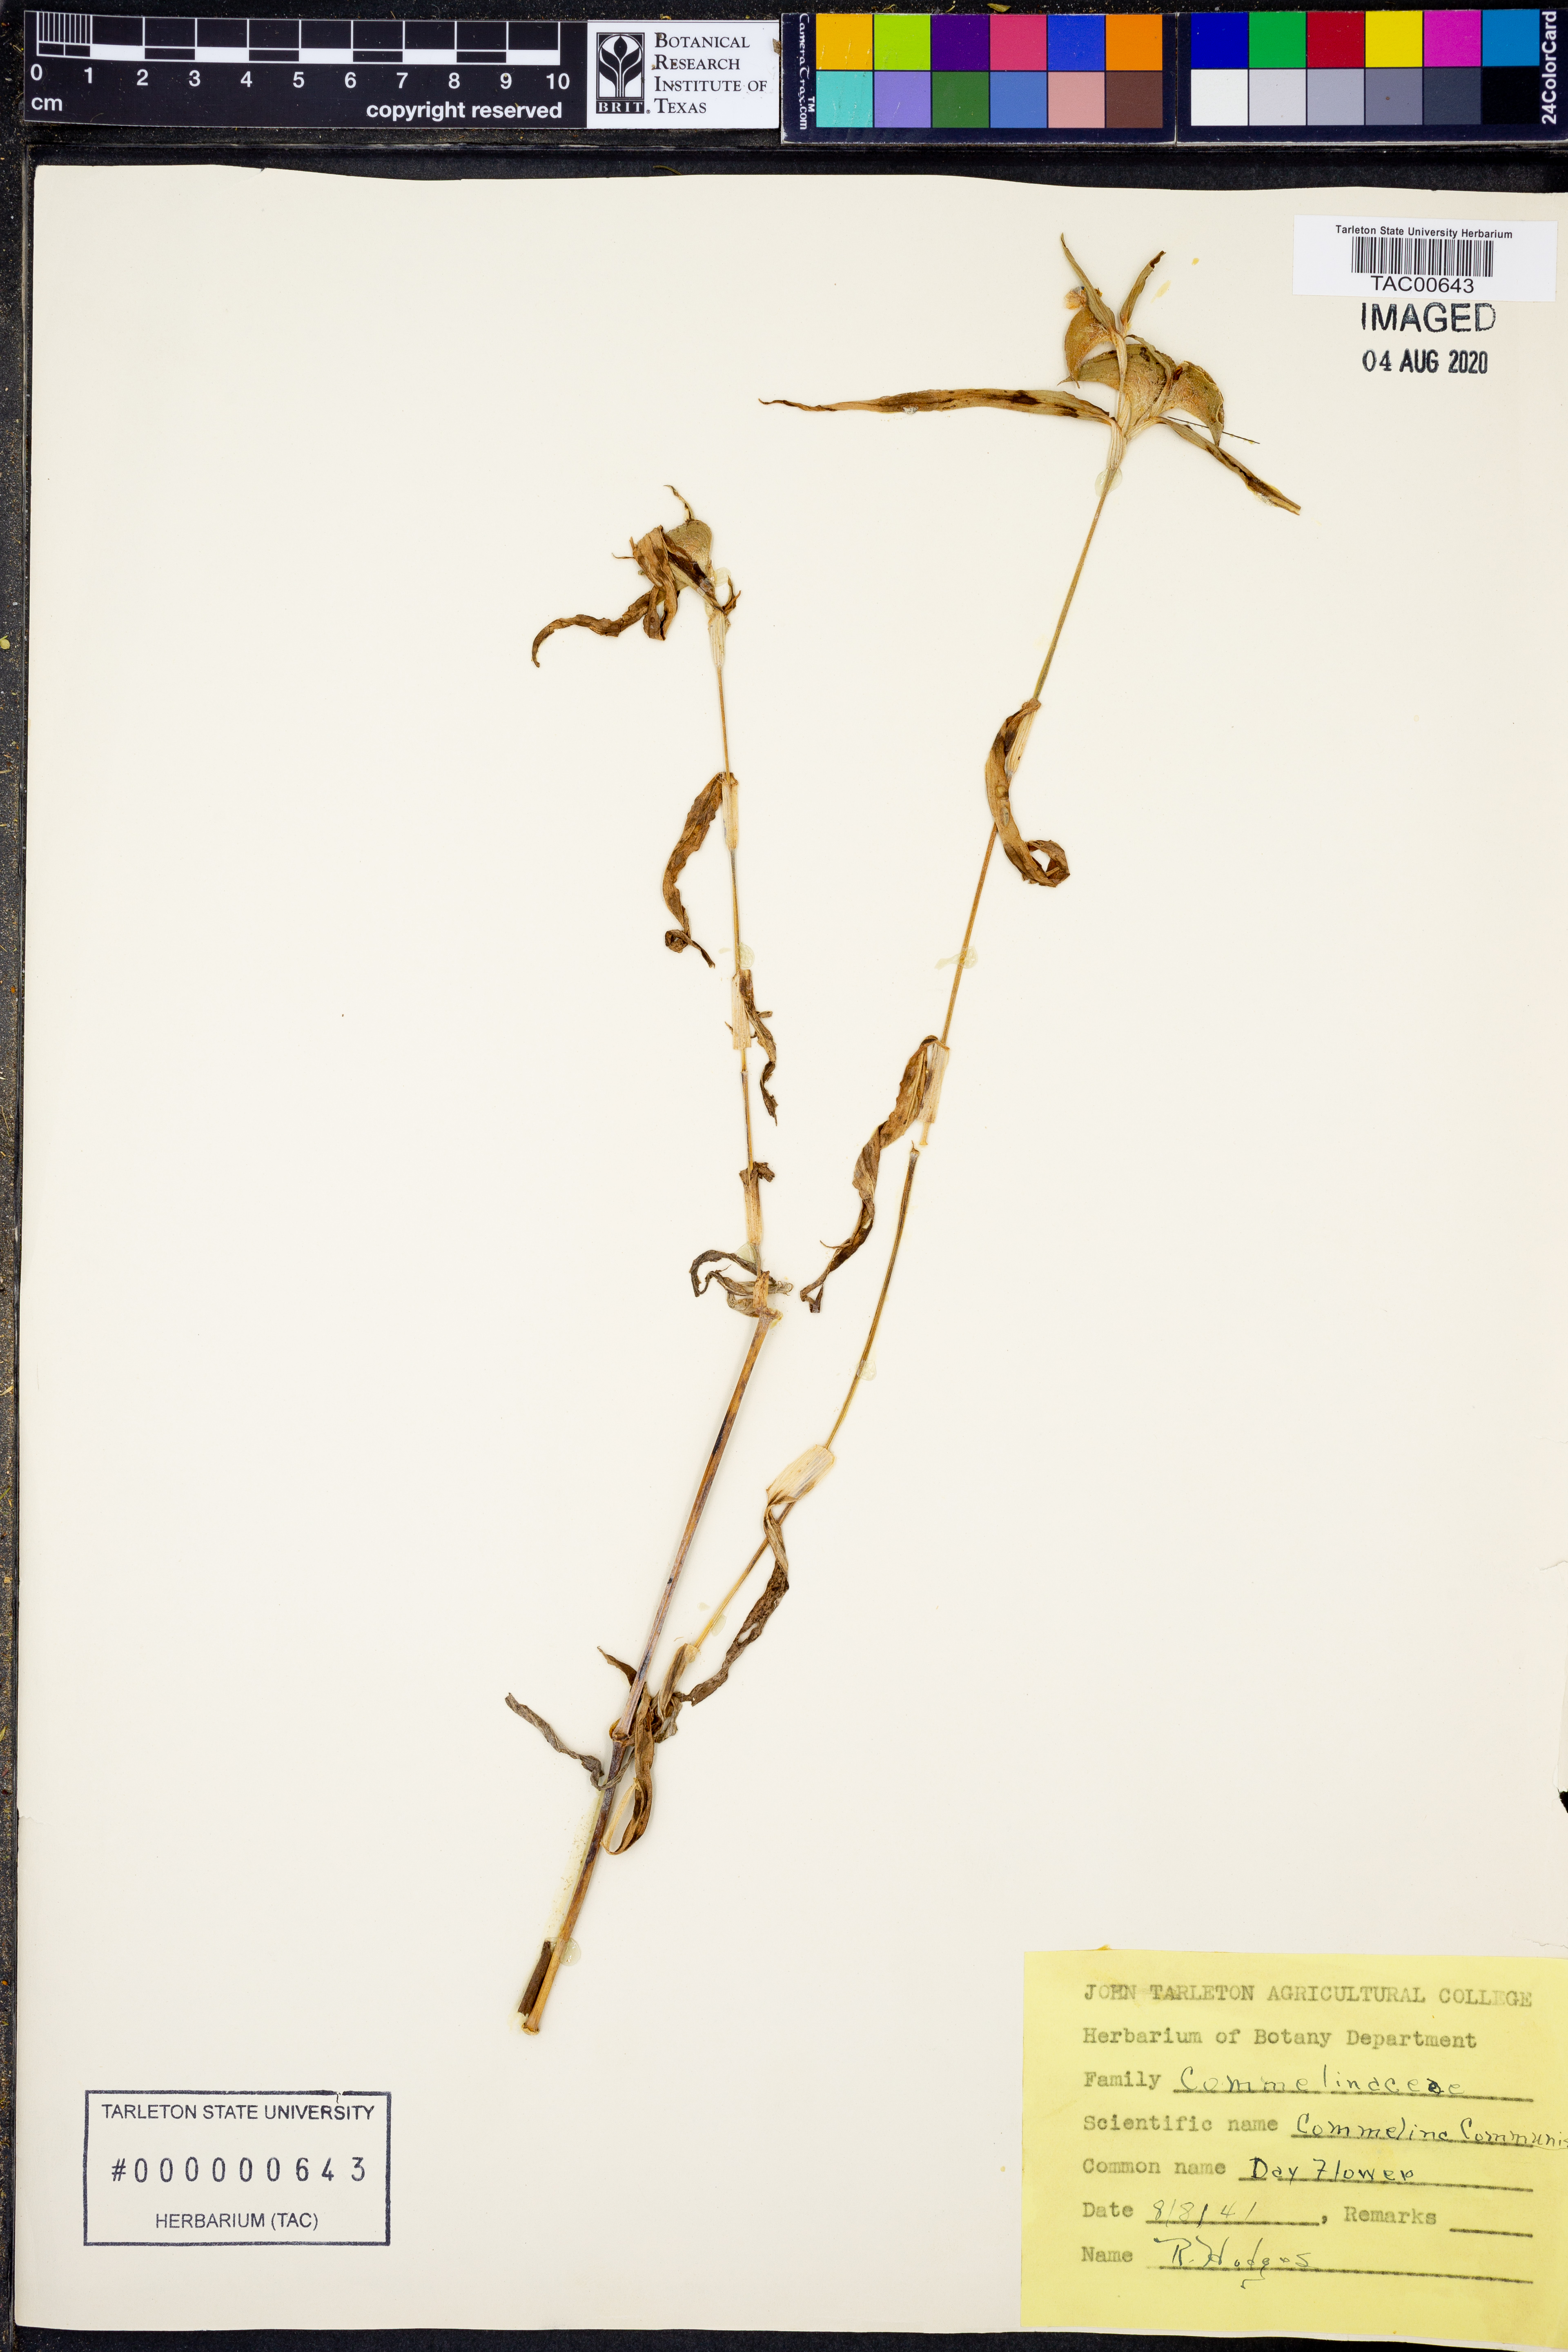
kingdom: Plantae
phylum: Tracheophyta
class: Liliopsida
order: Commelinales
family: Commelinaceae
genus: Commelina
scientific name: Commelina communis
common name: Asiatic dayflower
